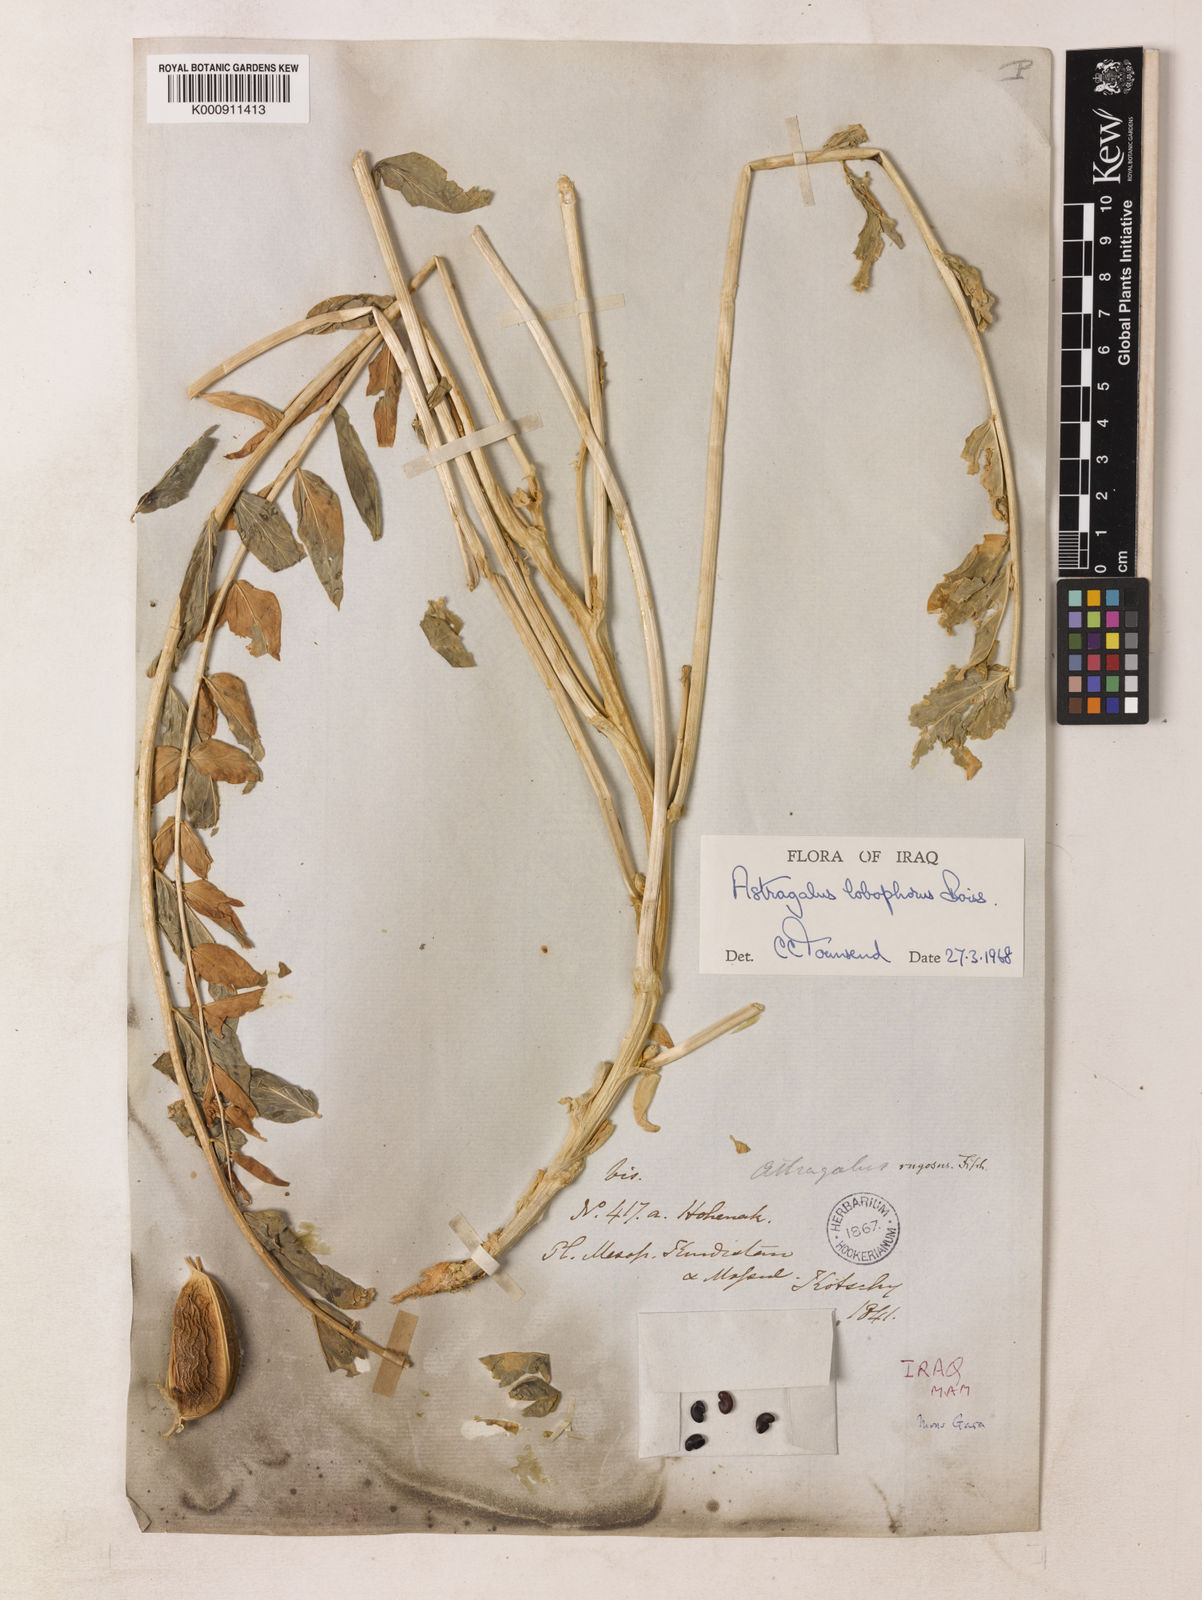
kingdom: Plantae
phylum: Tracheophyta
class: Magnoliopsida
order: Fabales
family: Fabaceae
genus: Astragalus
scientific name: Astragalus ovinus
